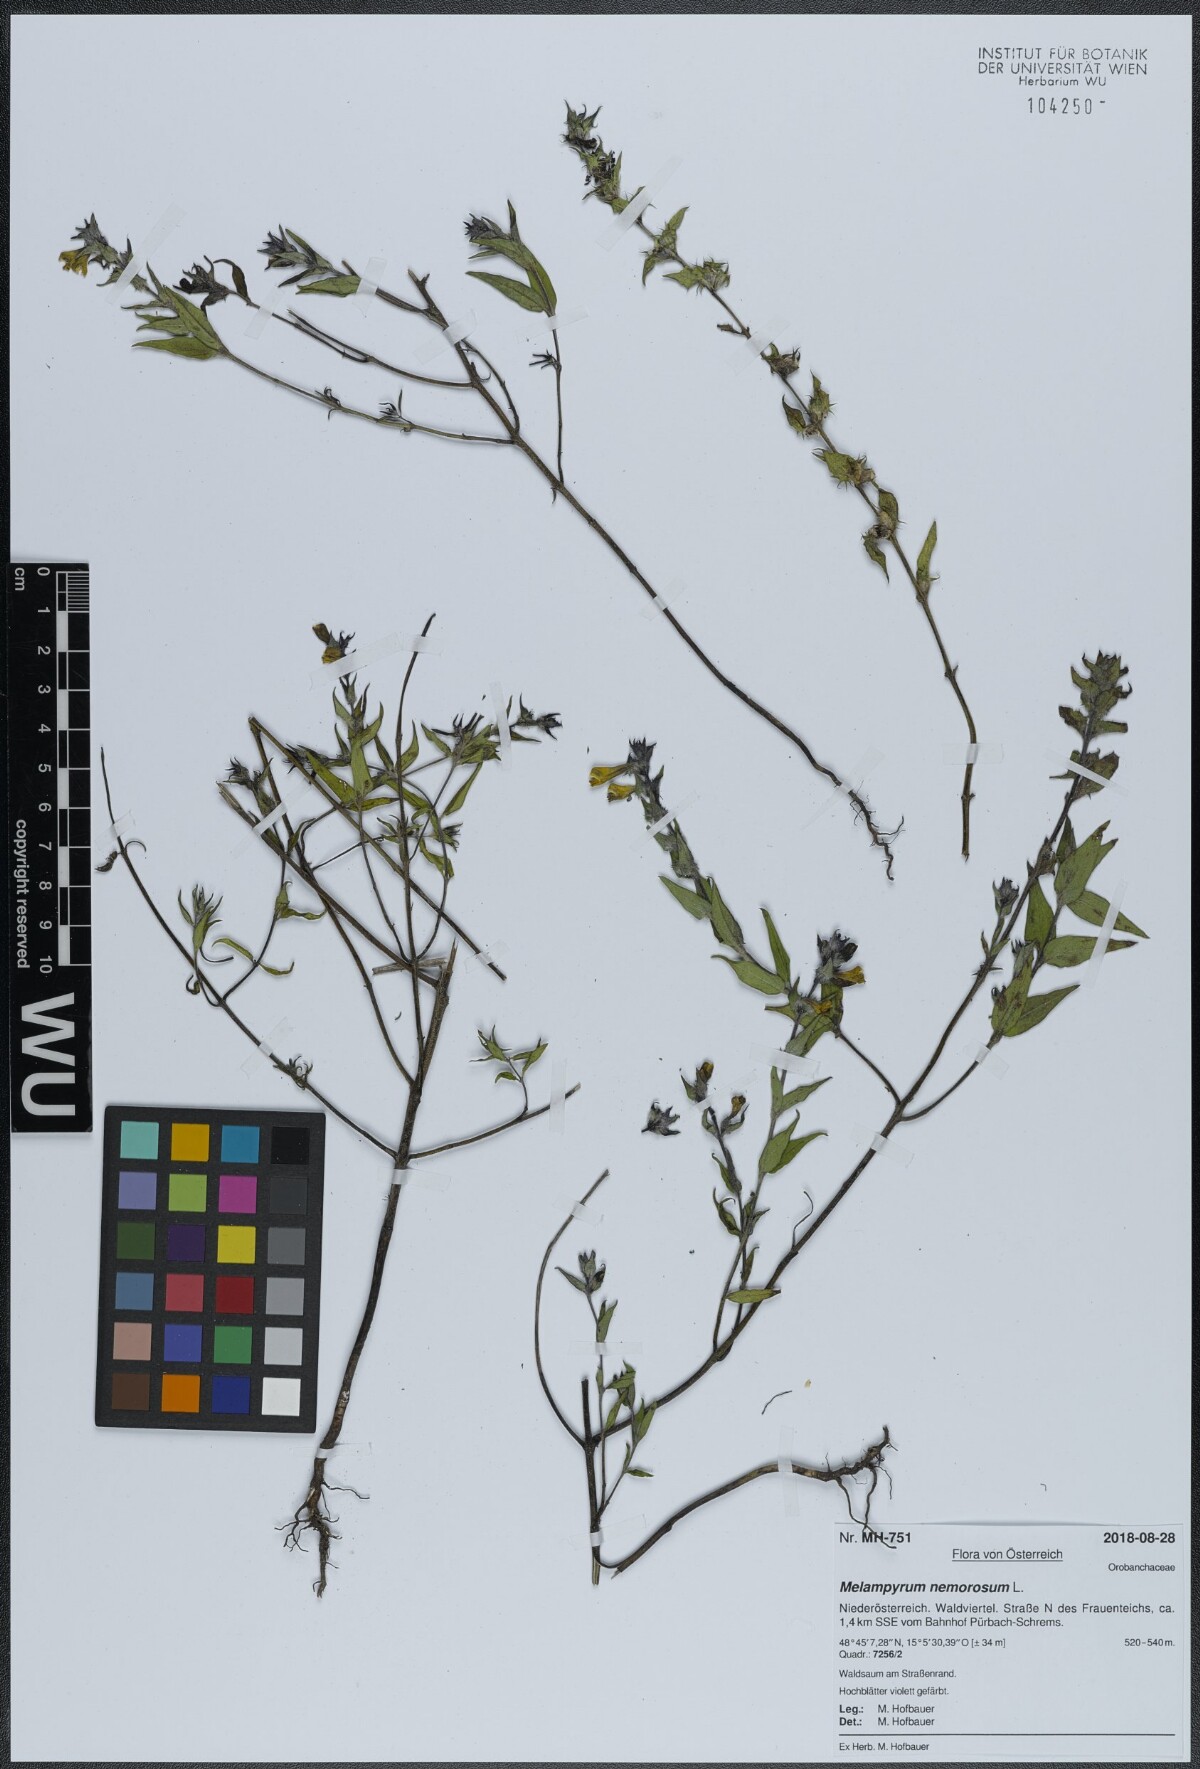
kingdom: Plantae
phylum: Tracheophyta
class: Magnoliopsida
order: Lamiales
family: Orobanchaceae
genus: Melampyrum
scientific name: Melampyrum nemorosum
